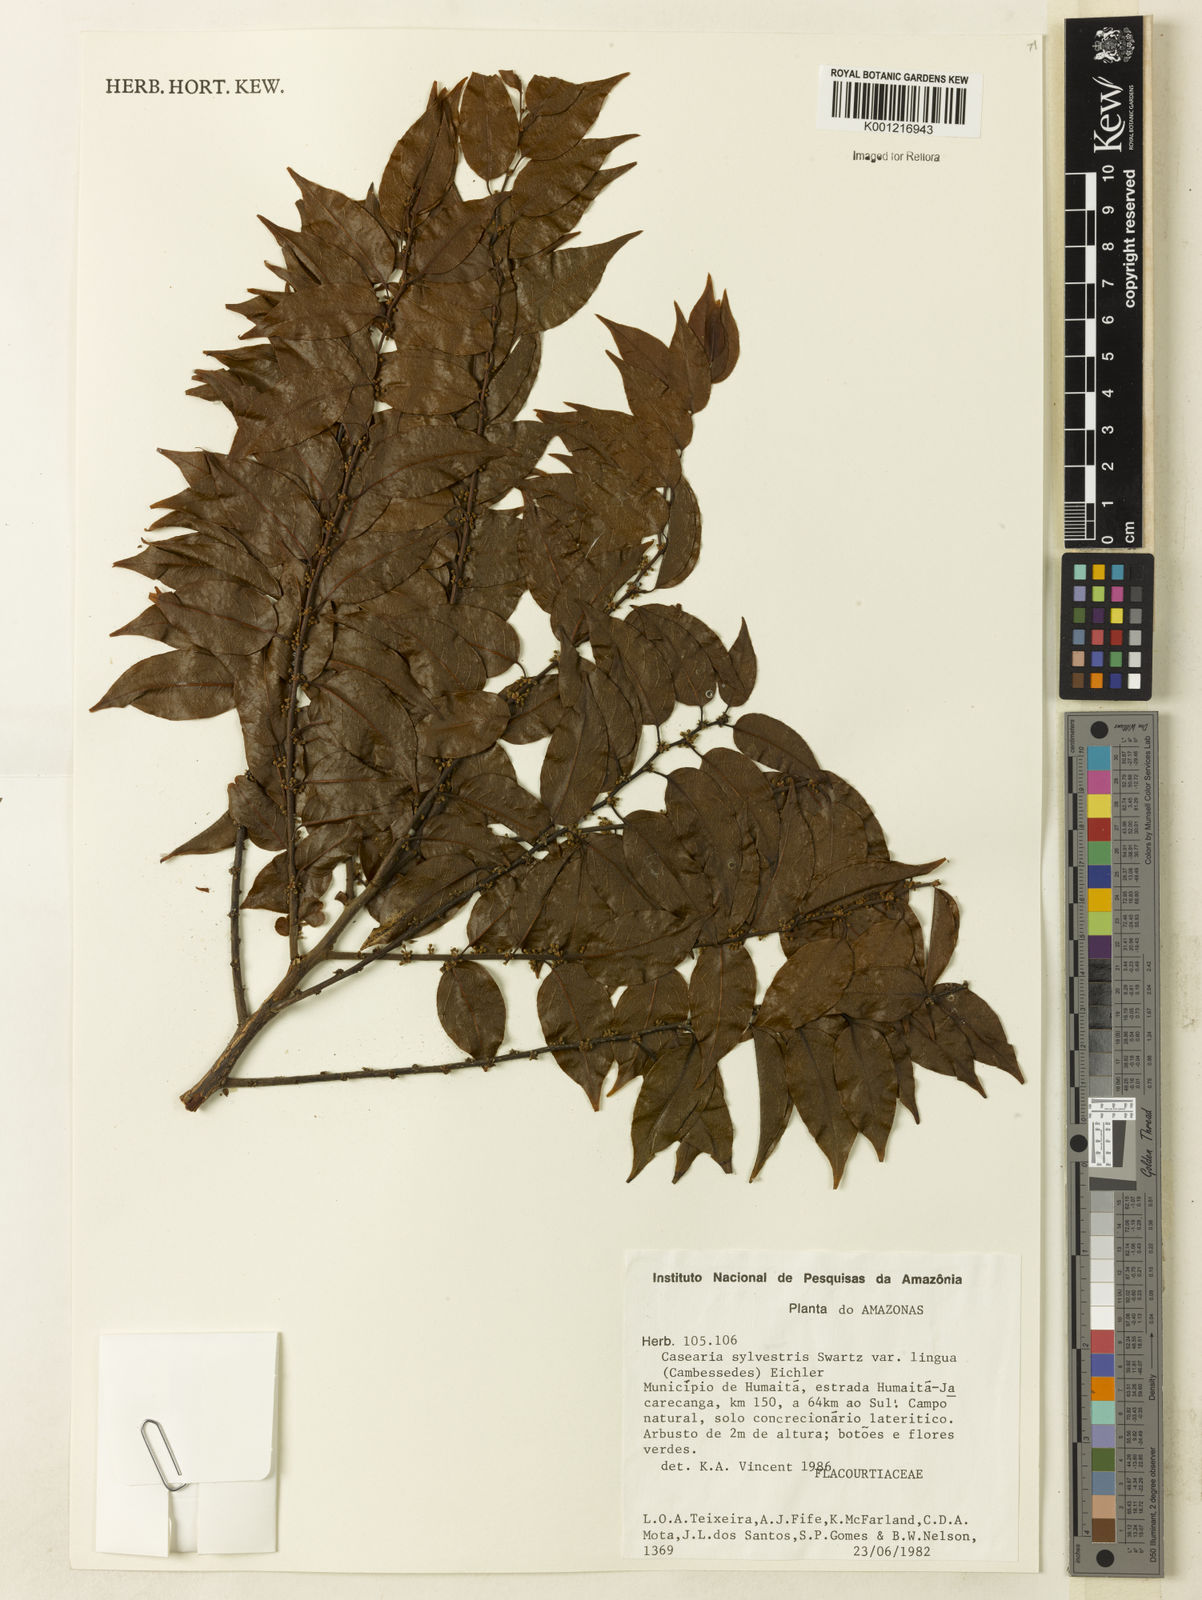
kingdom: Plantae
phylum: Tracheophyta
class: Magnoliopsida
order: Malpighiales
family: Salicaceae
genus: Casearia
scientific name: Casearia sylvestris
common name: Wild sage
